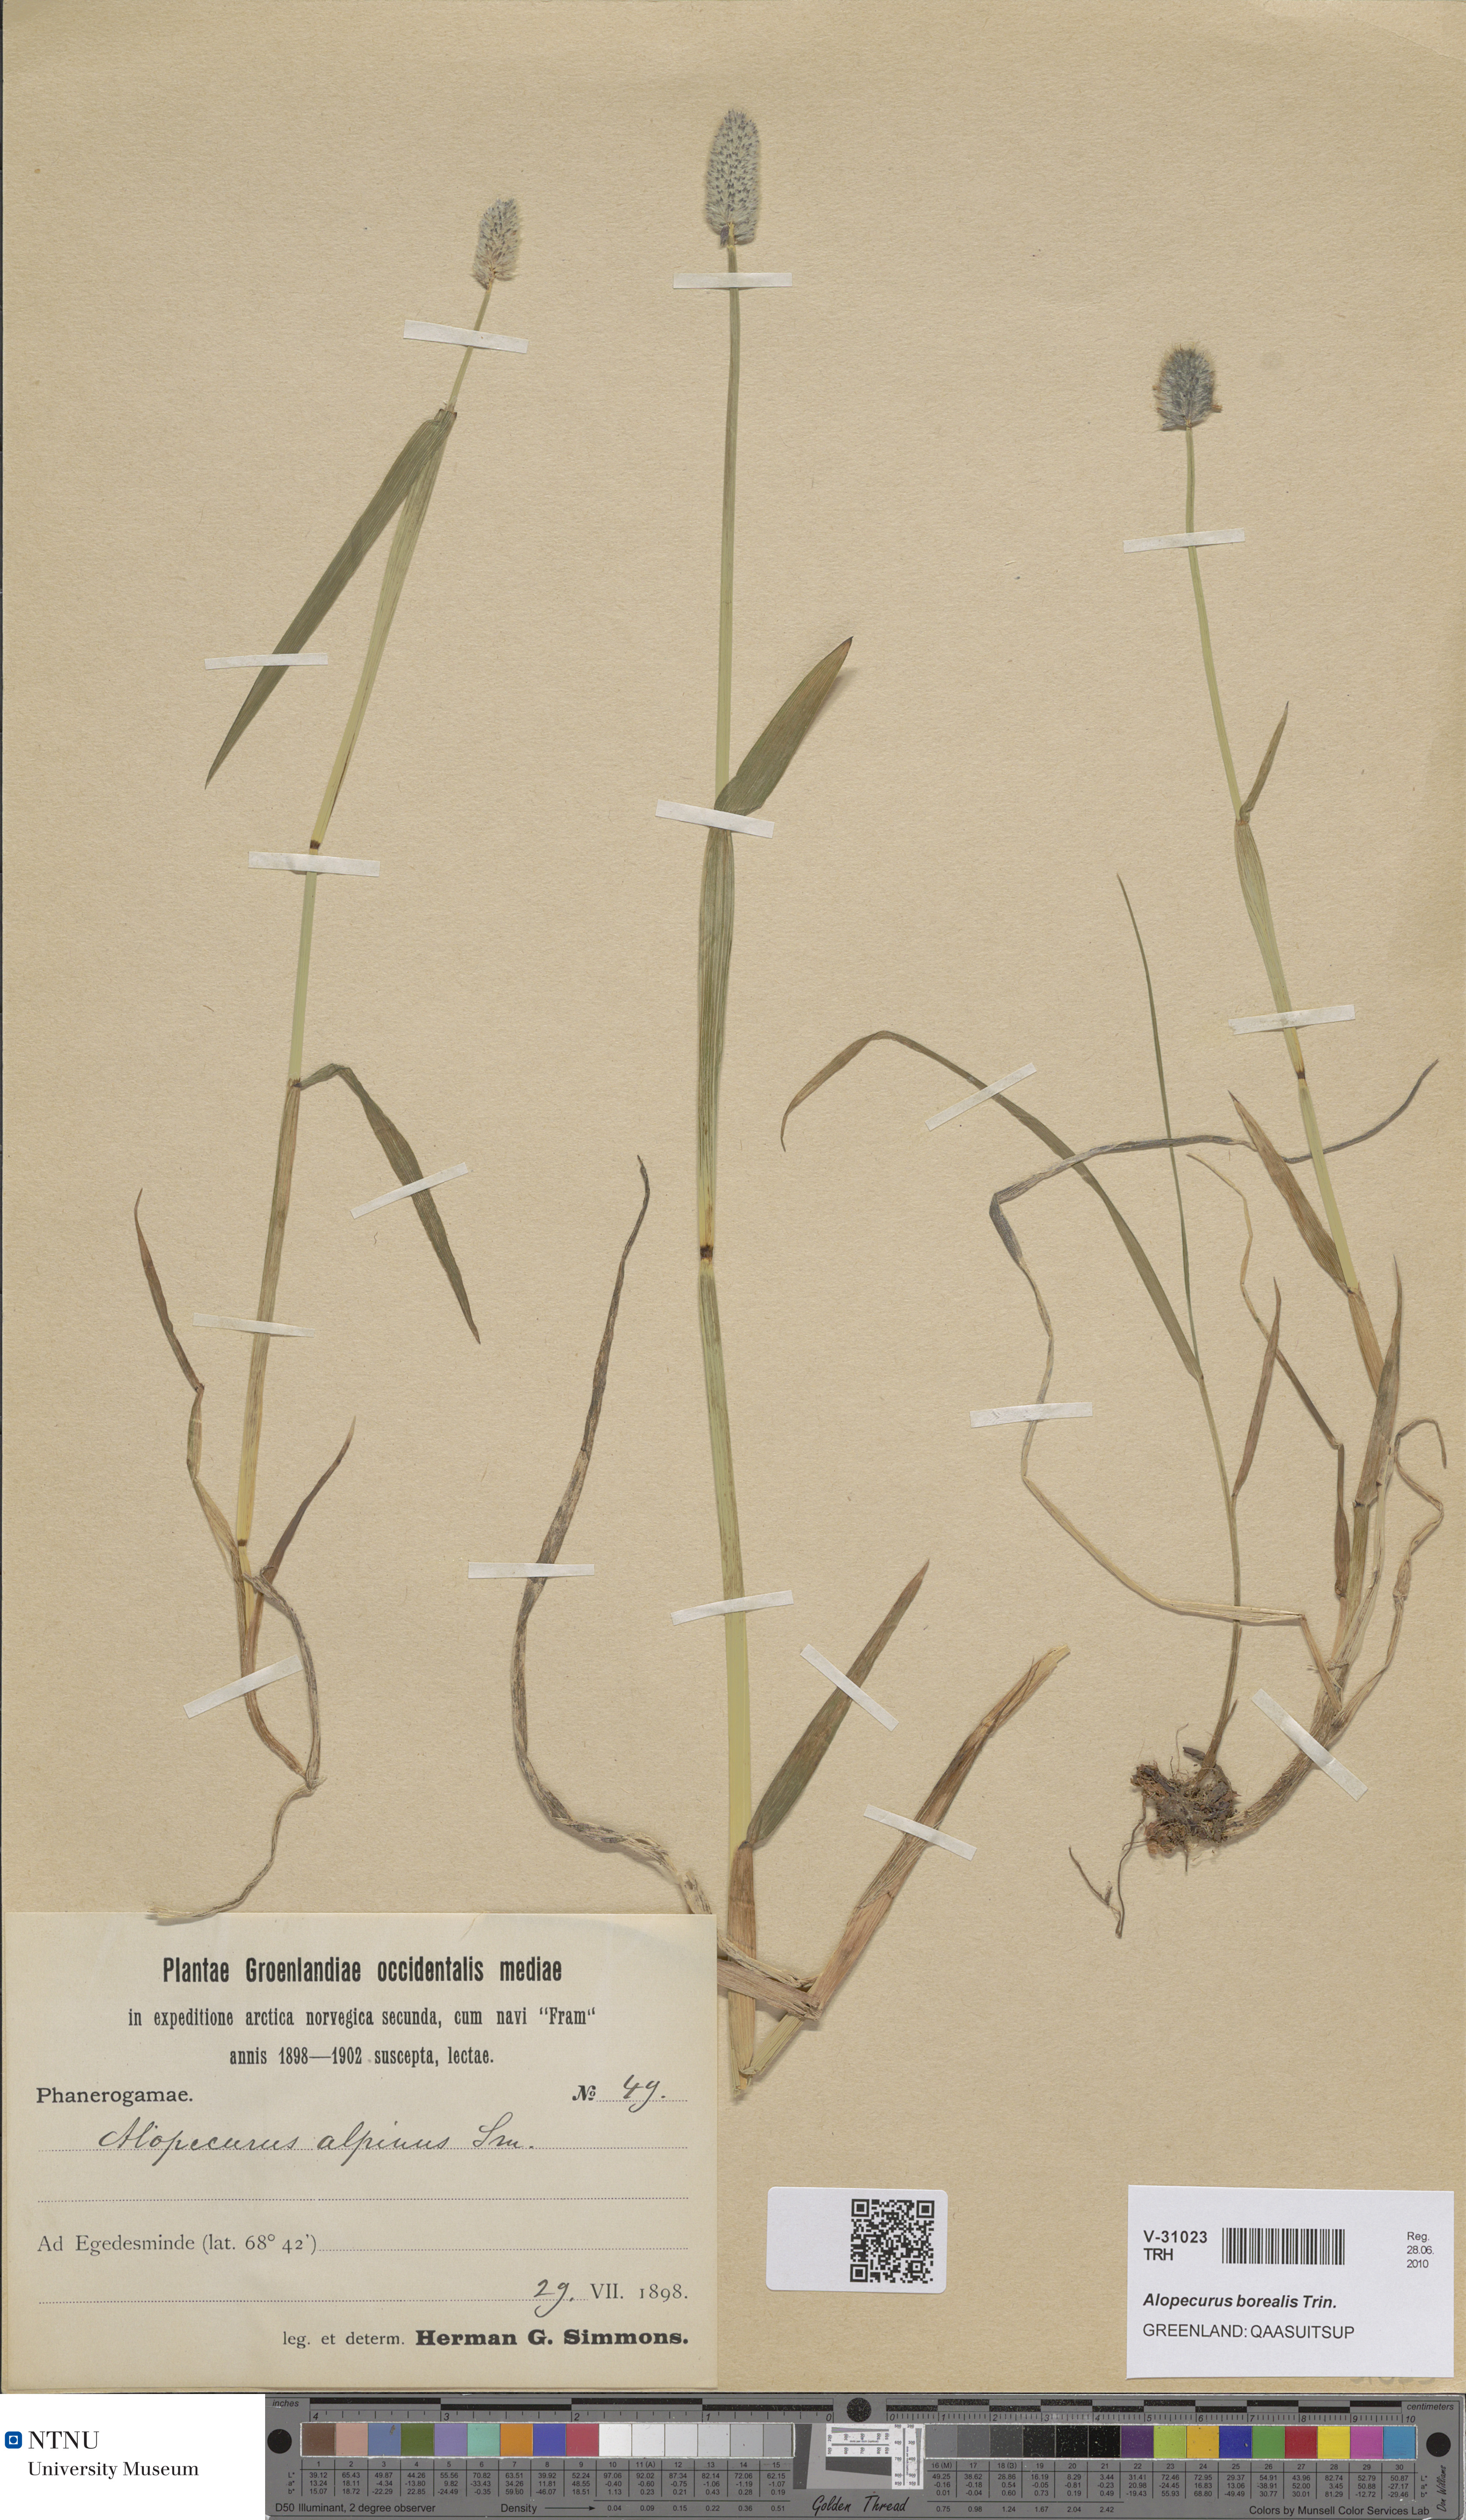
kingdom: Plantae
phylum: Tracheophyta
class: Liliopsida
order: Poales
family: Poaceae
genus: Alopecurus
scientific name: Alopecurus magellanicus
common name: Alpine foxtail
